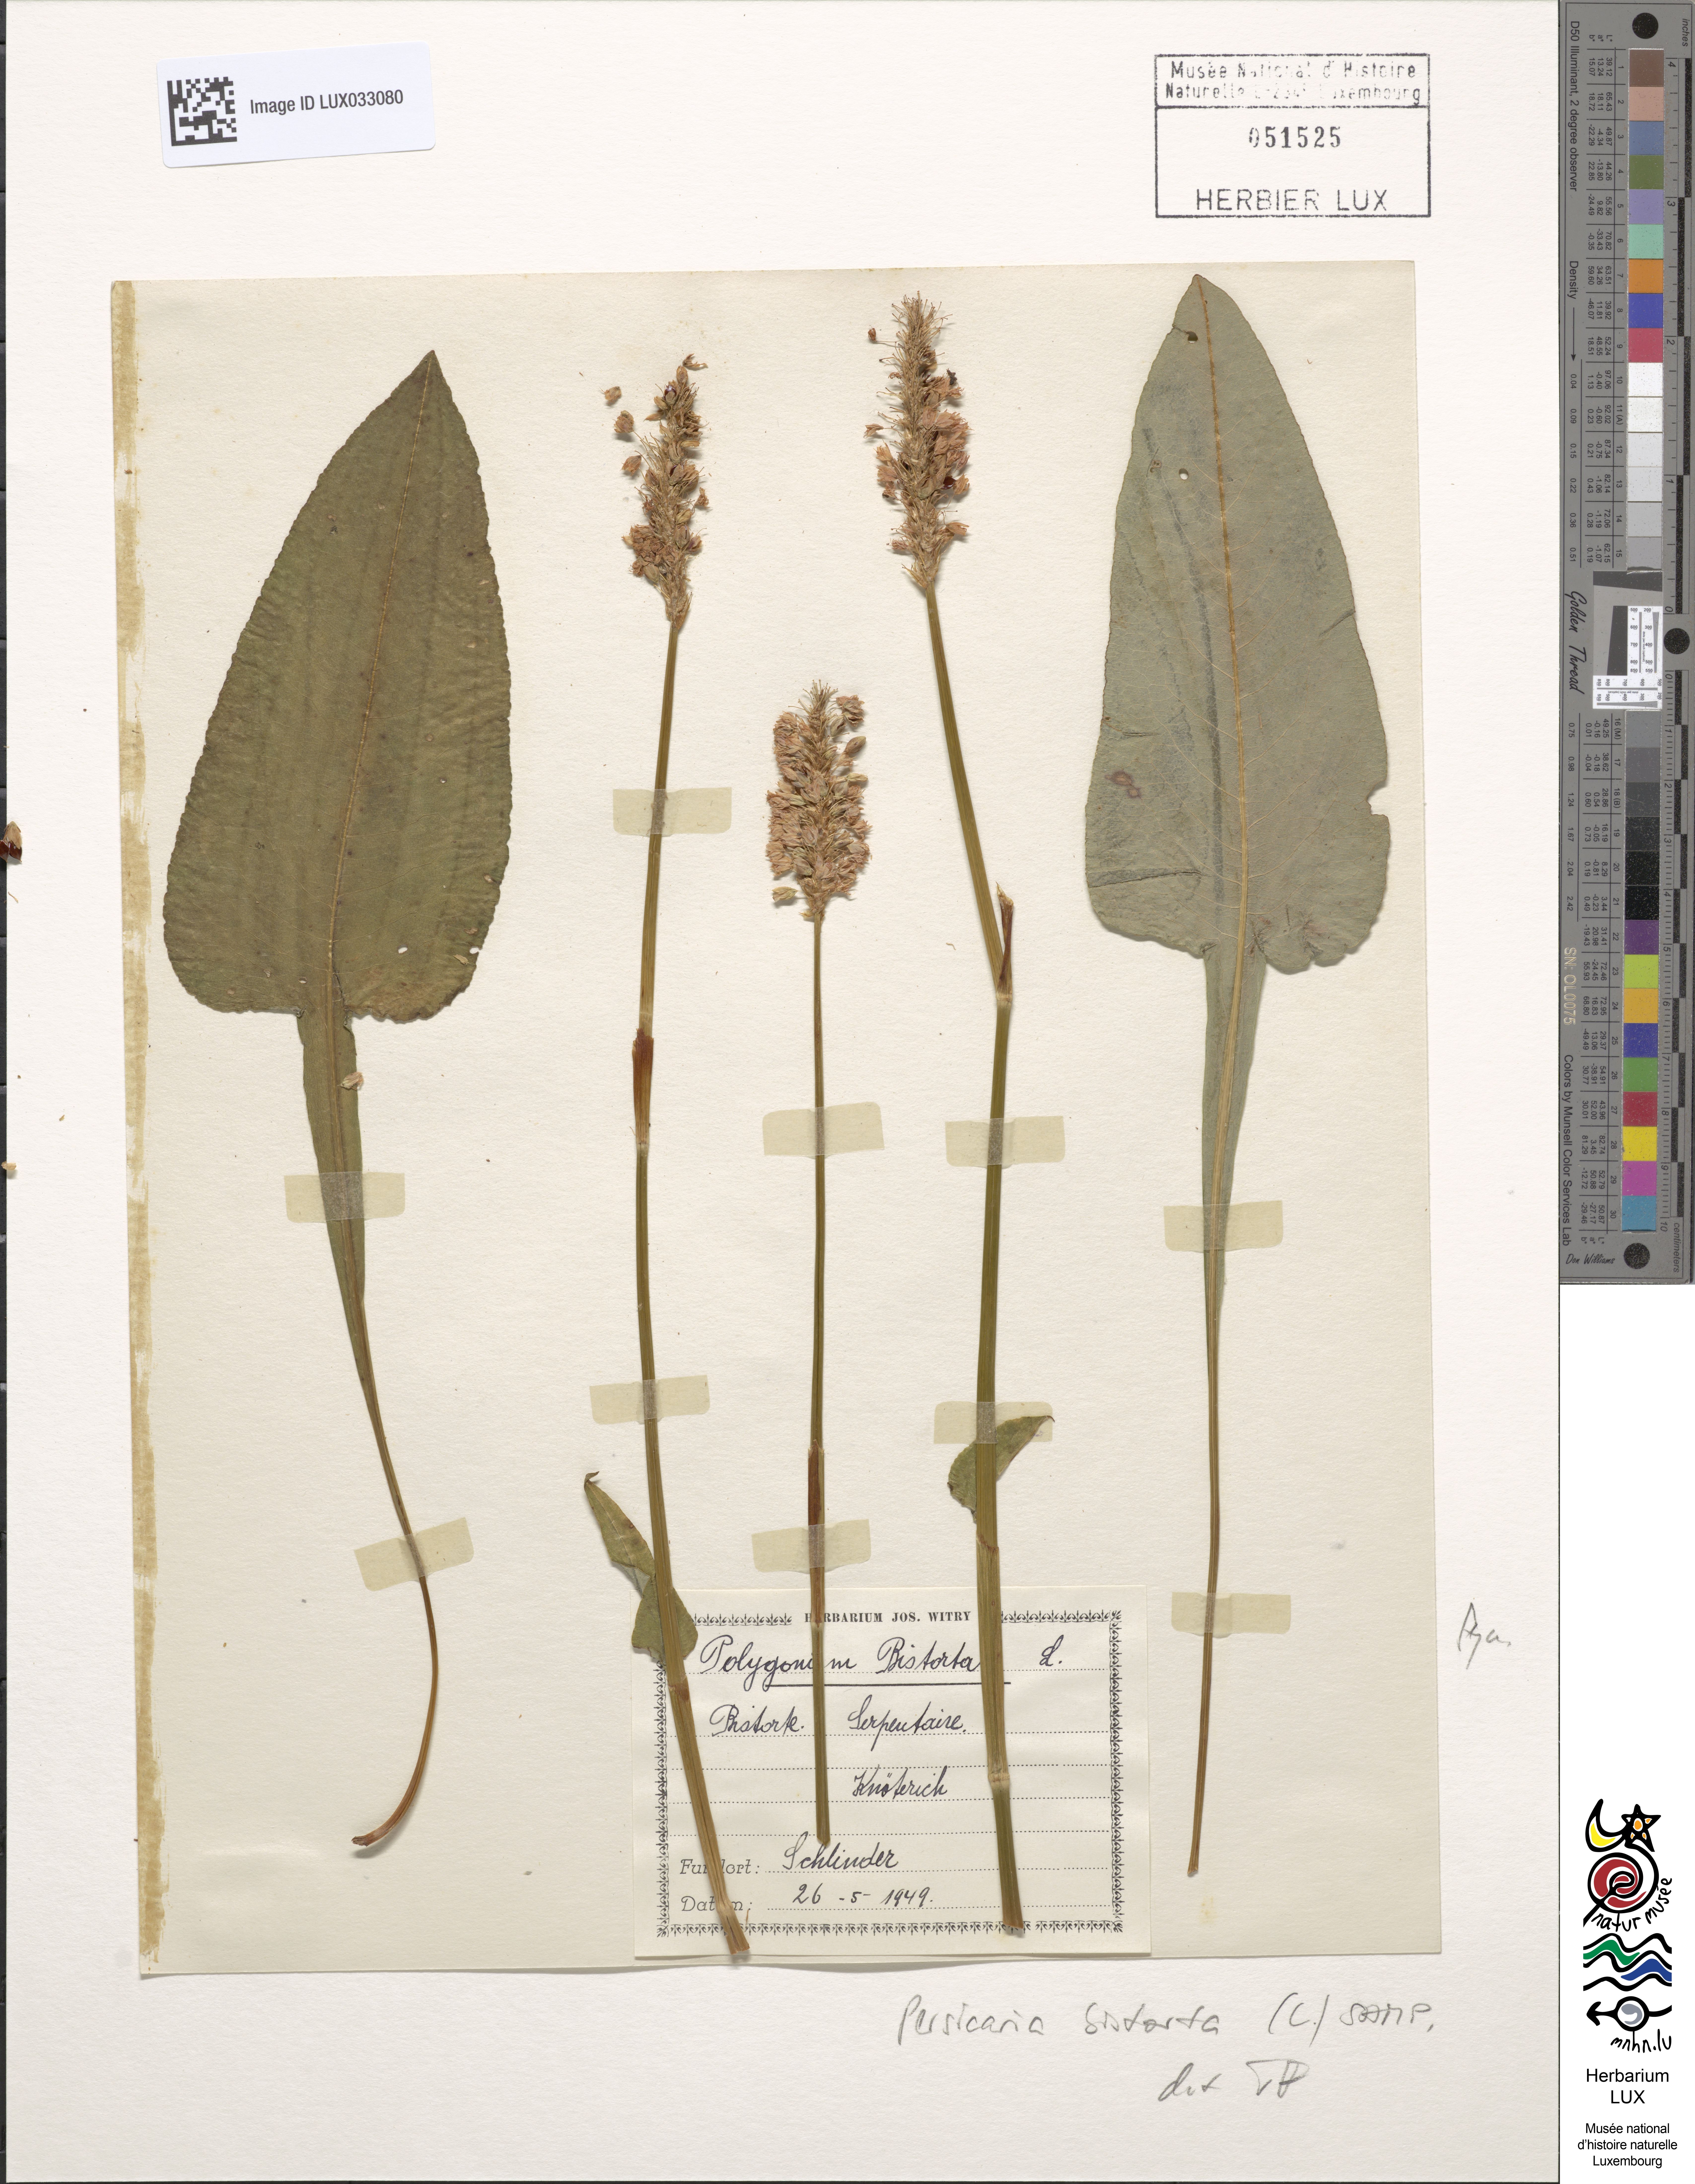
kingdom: Plantae
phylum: Tracheophyta
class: Magnoliopsida
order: Caryophyllales
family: Polygonaceae
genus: Bistorta
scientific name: Bistorta officinalis
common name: Common bistort
